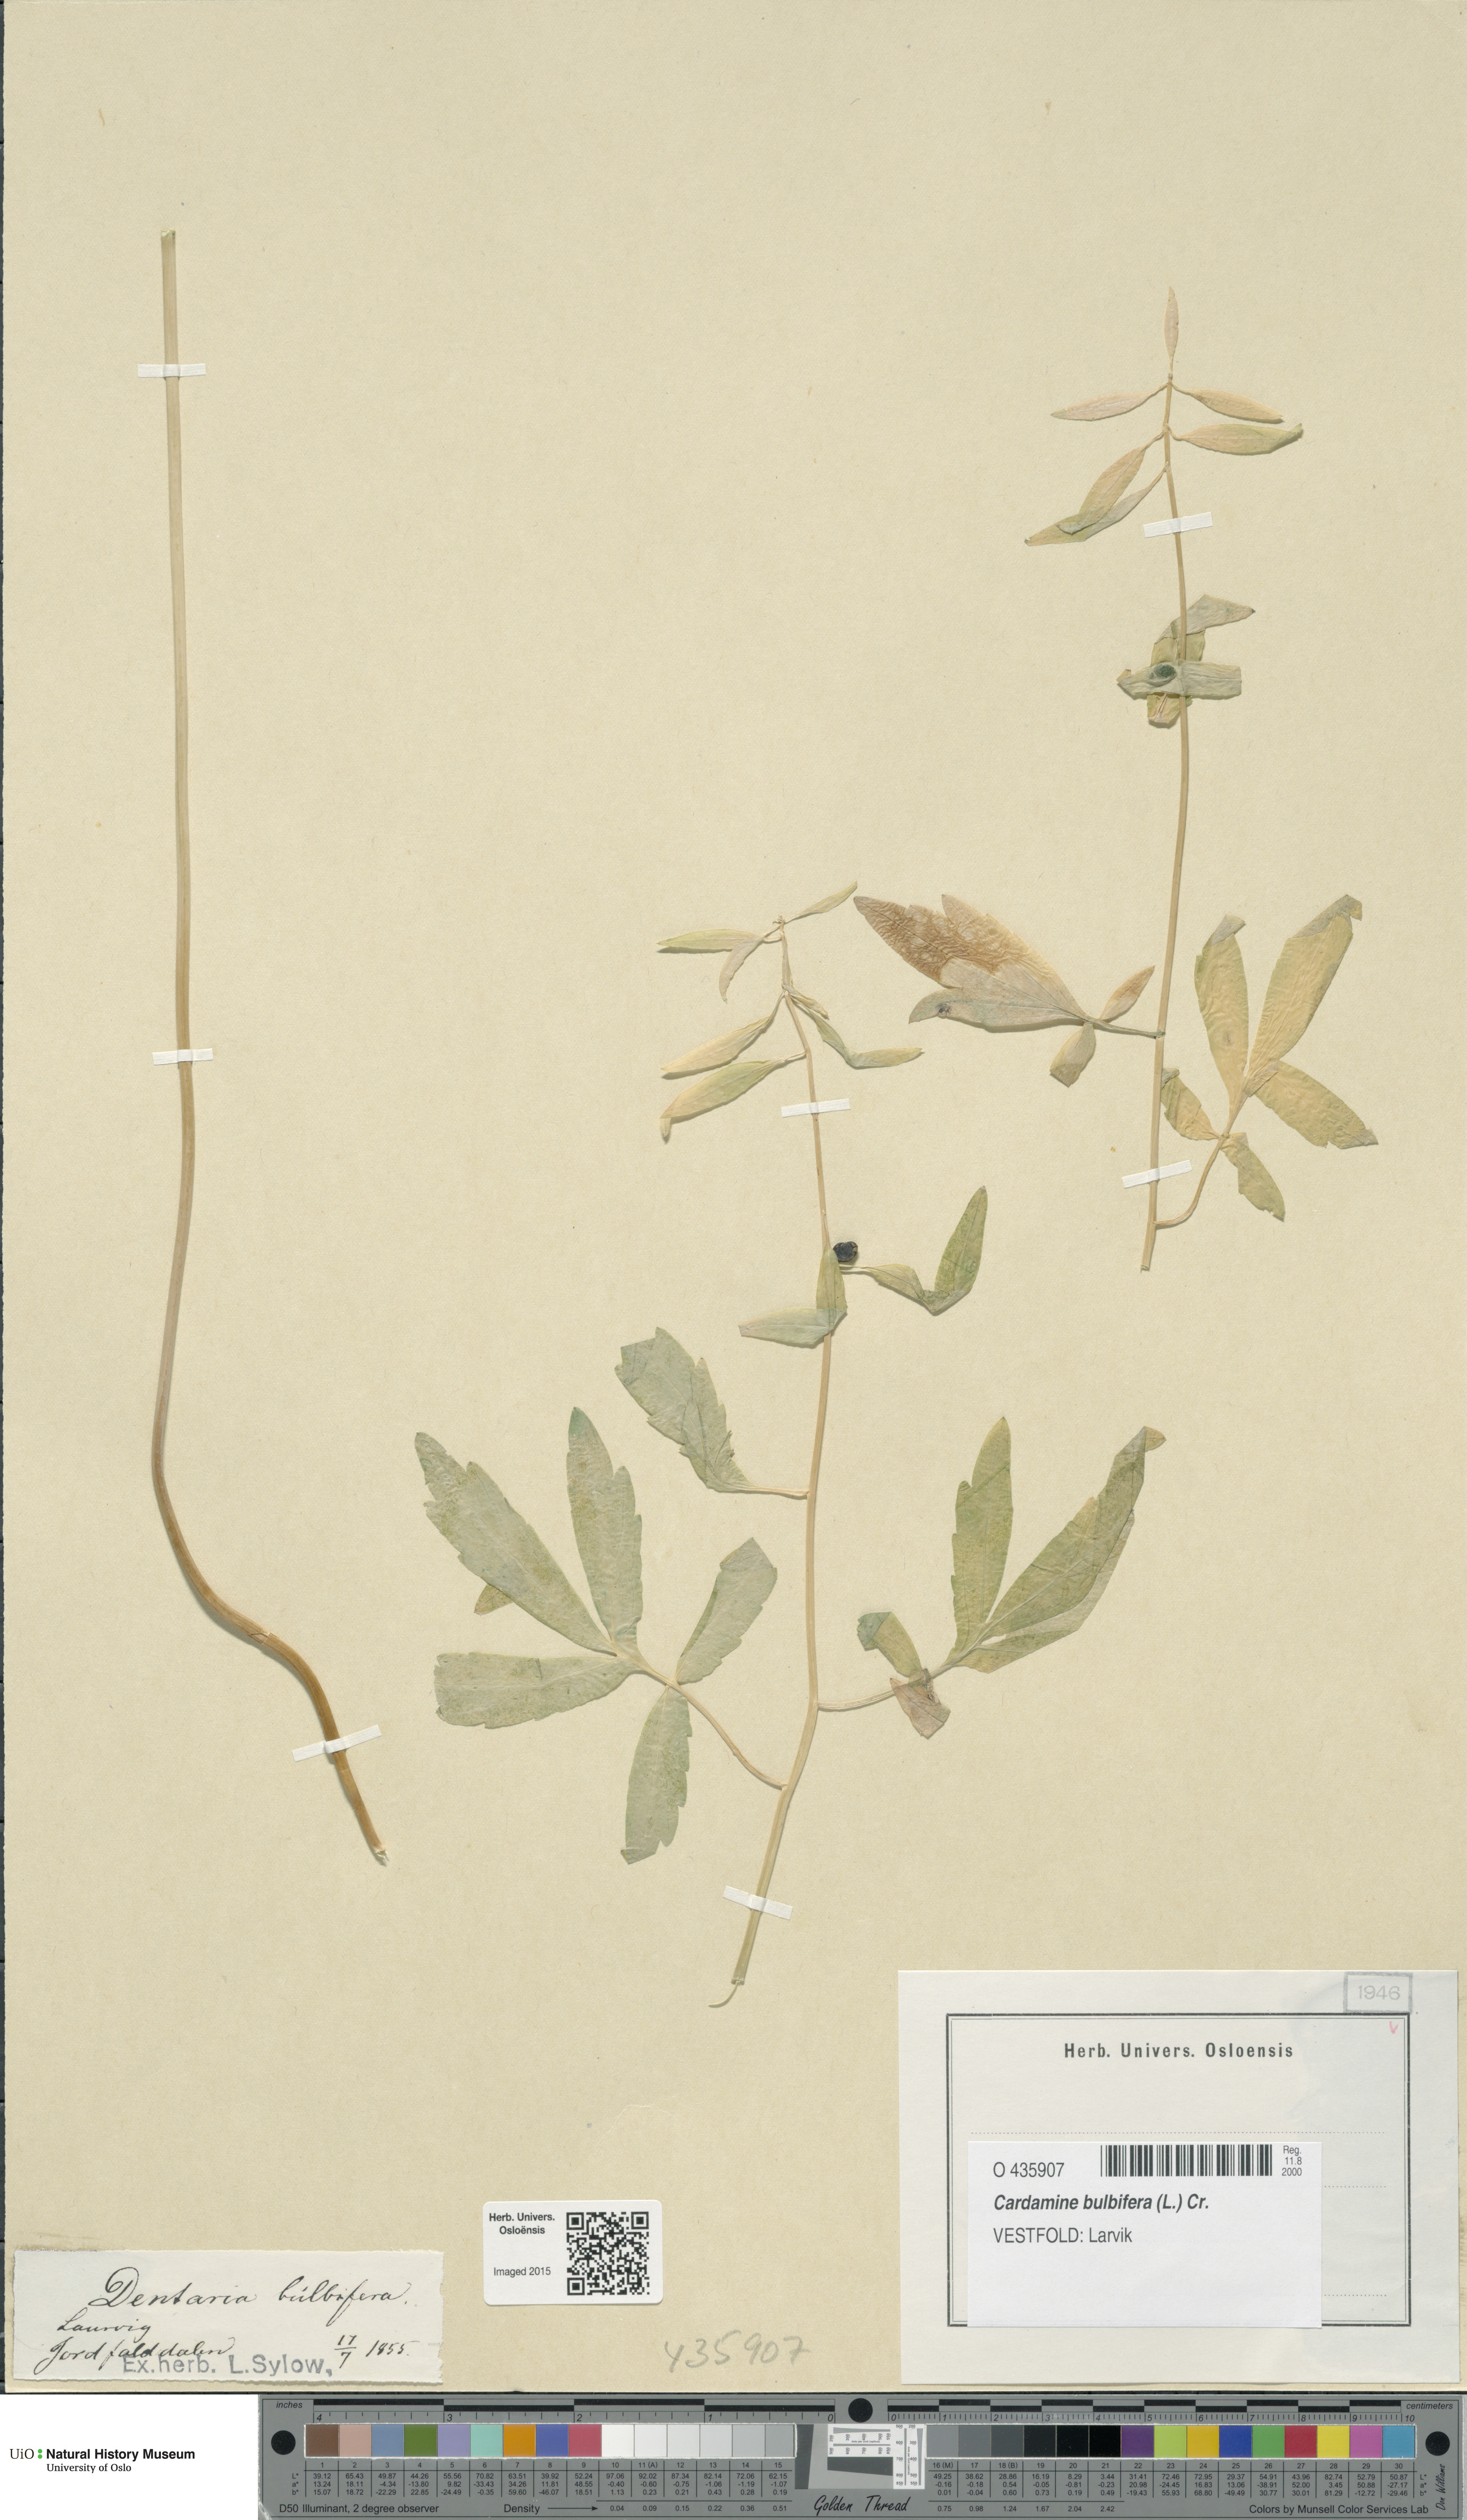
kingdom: Plantae
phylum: Tracheophyta
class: Magnoliopsida
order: Brassicales
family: Brassicaceae
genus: Cardamine
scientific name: Cardamine bulbifera
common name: Coralroot bittercress
